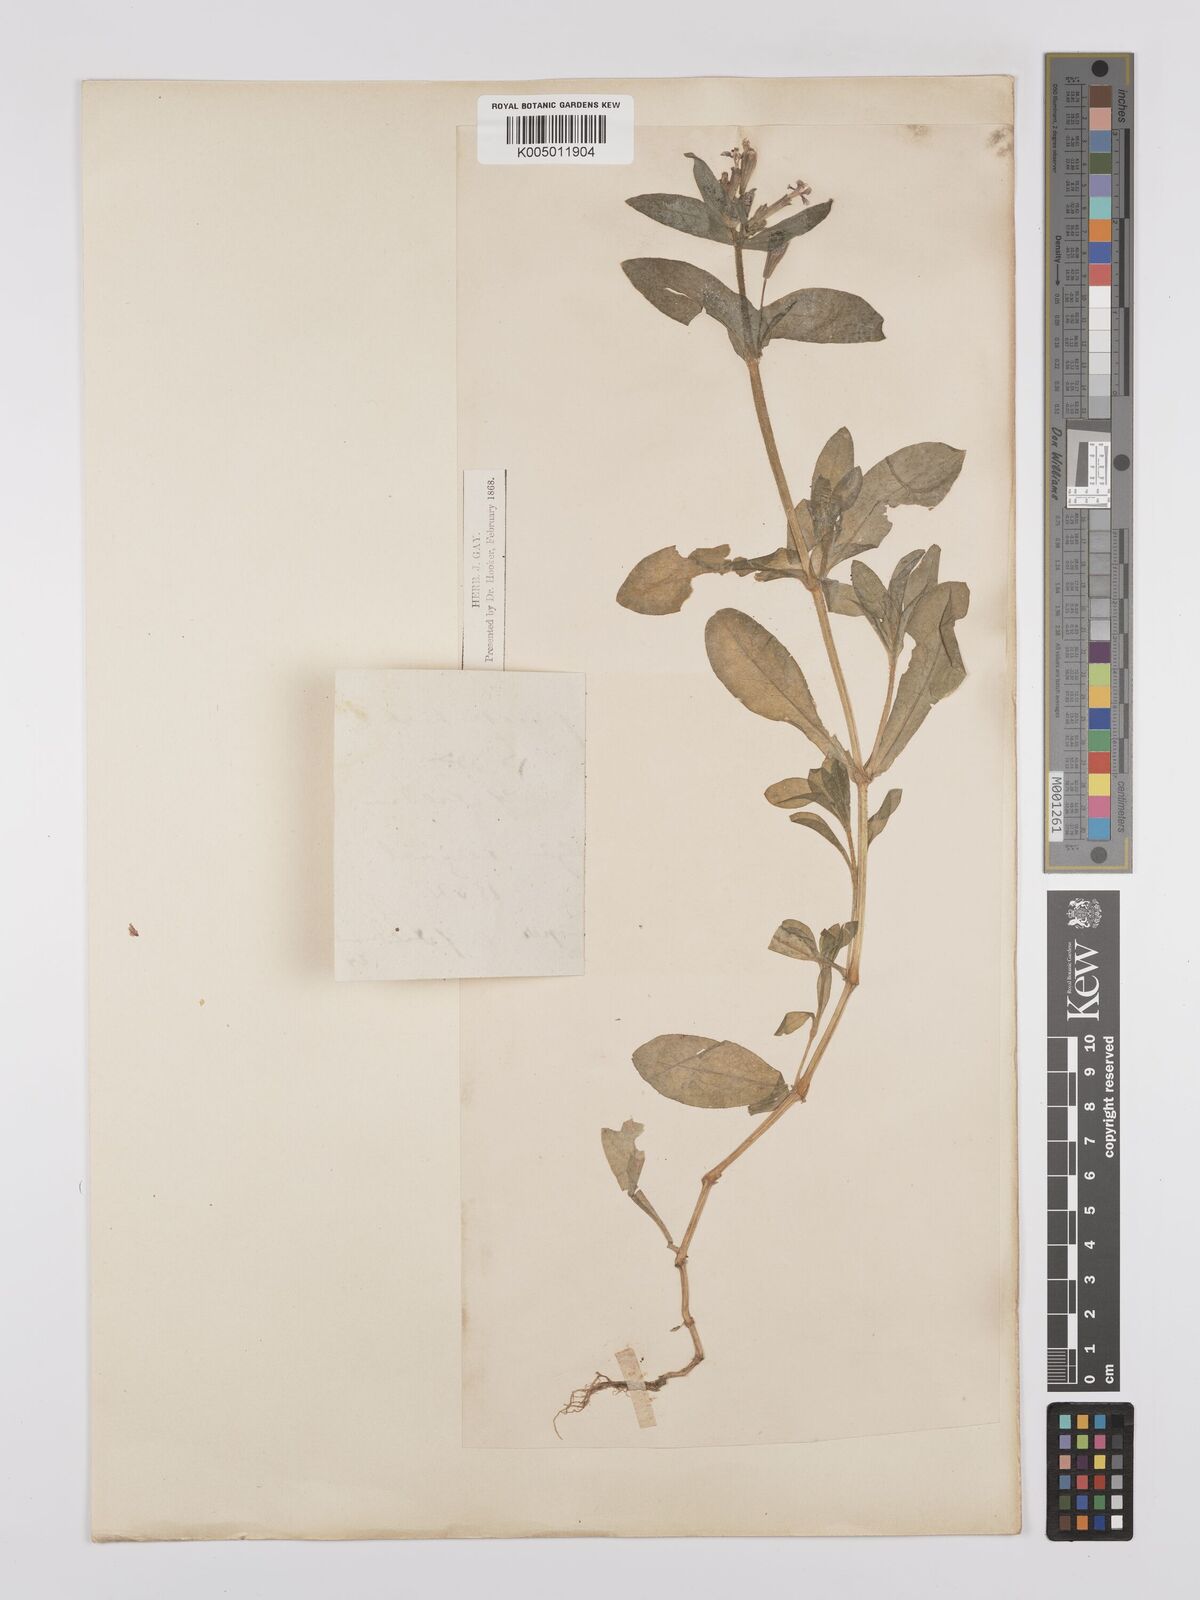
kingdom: Plantae
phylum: Tracheophyta
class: Magnoliopsida
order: Caryophyllales
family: Caryophyllaceae
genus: Silene
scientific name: Silene fuscata
